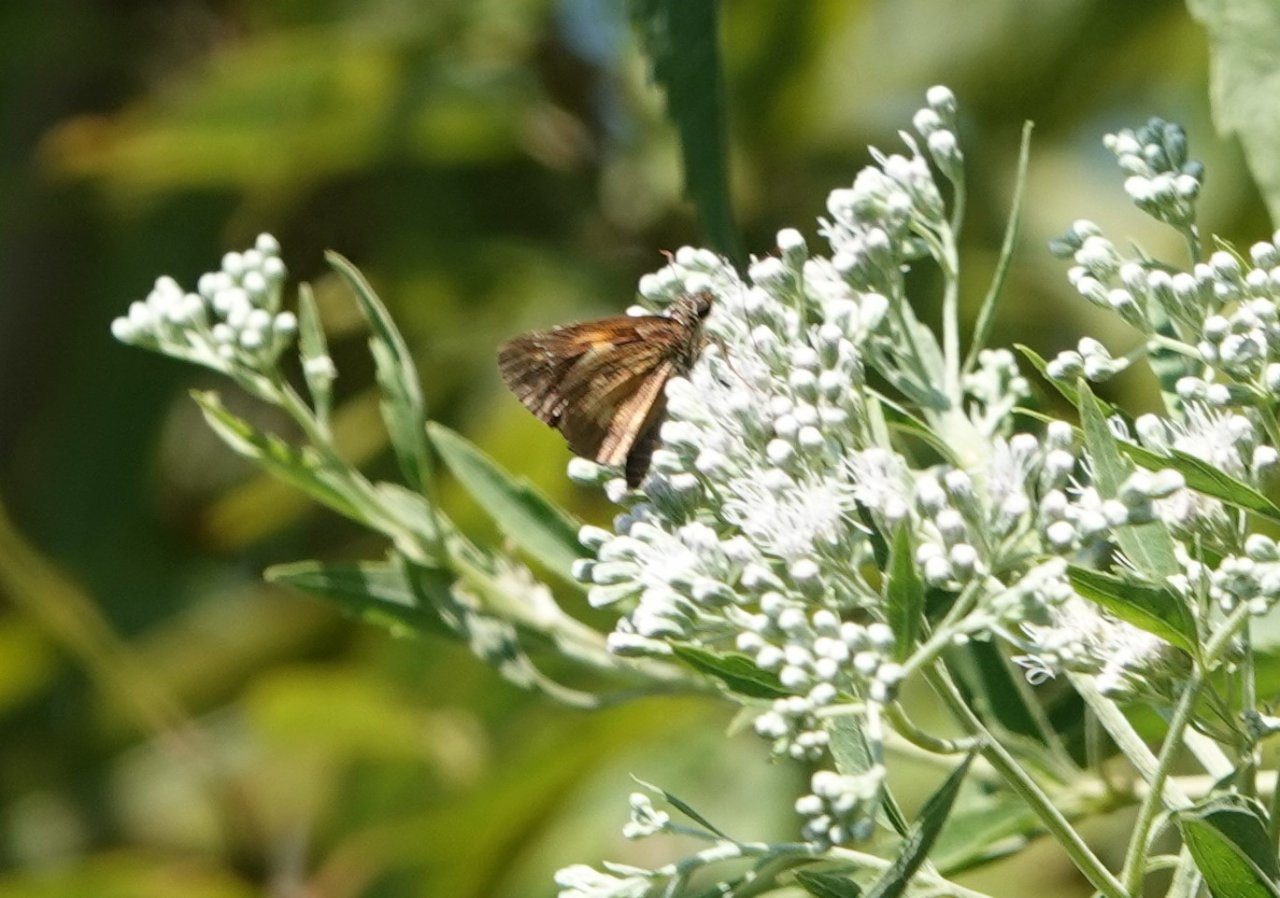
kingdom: Animalia
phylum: Arthropoda
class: Insecta
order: Lepidoptera
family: Hesperiidae
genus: Poanes
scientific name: Poanes viator
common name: Broad-winged Skipper
